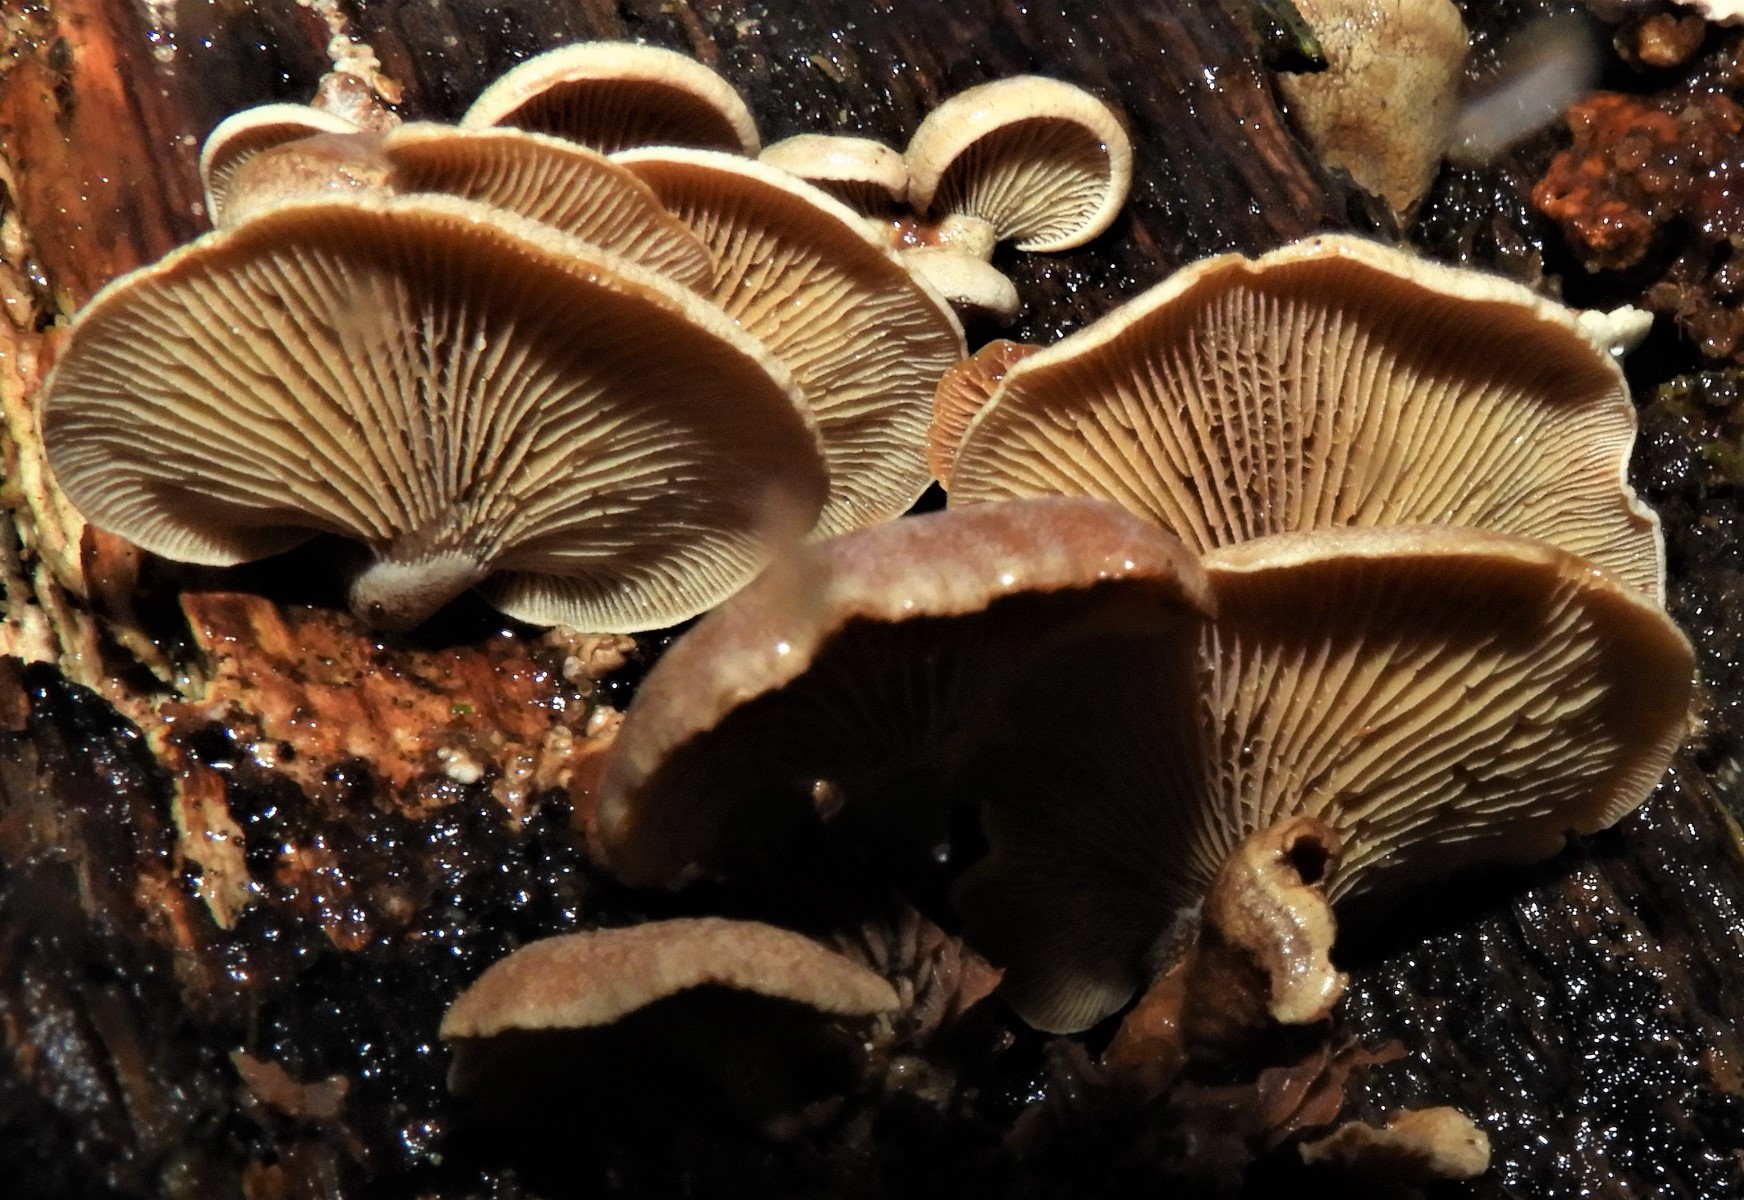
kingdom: Fungi
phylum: Basidiomycota
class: Agaricomycetes
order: Agaricales
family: Mycenaceae
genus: Panellus
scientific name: Panellus stipticus
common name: kliddet epaulethat
